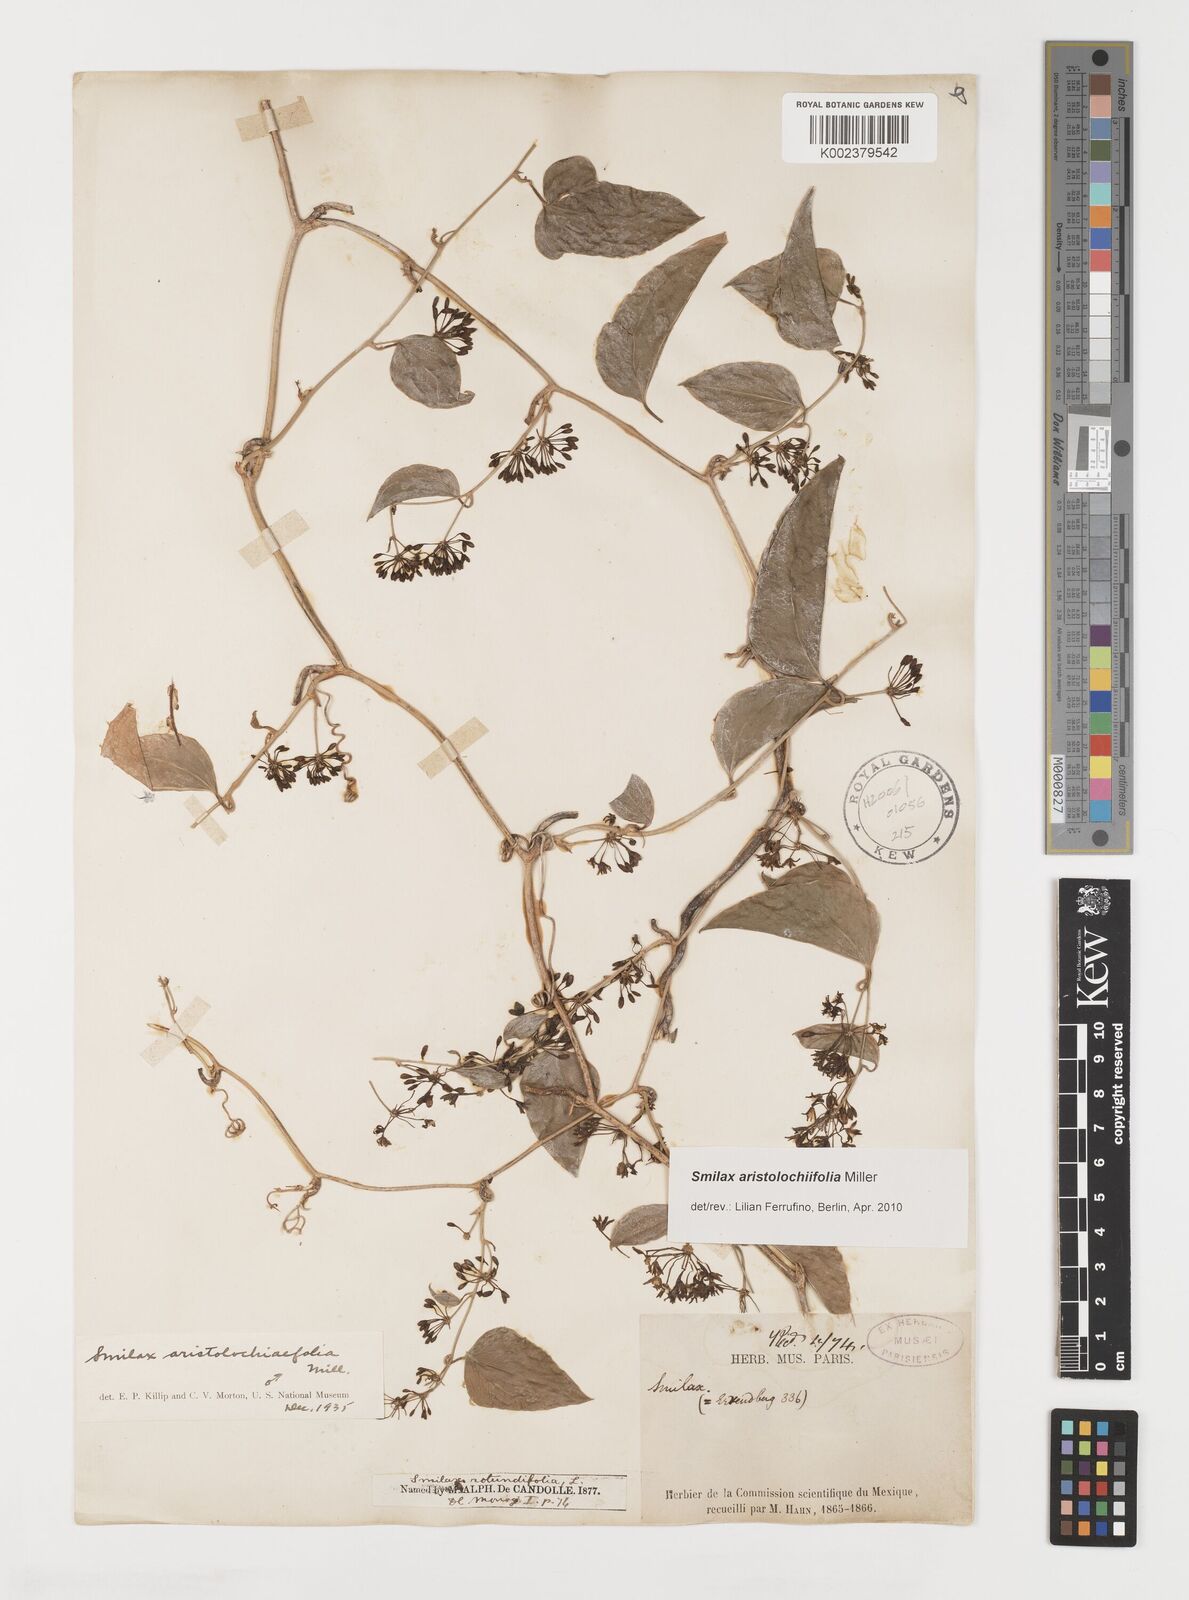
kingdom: Plantae
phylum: Tracheophyta
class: Liliopsida
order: Liliales
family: Smilacaceae
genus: Smilax
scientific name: Smilax aristolochiifolia
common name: Sarsaparilla
